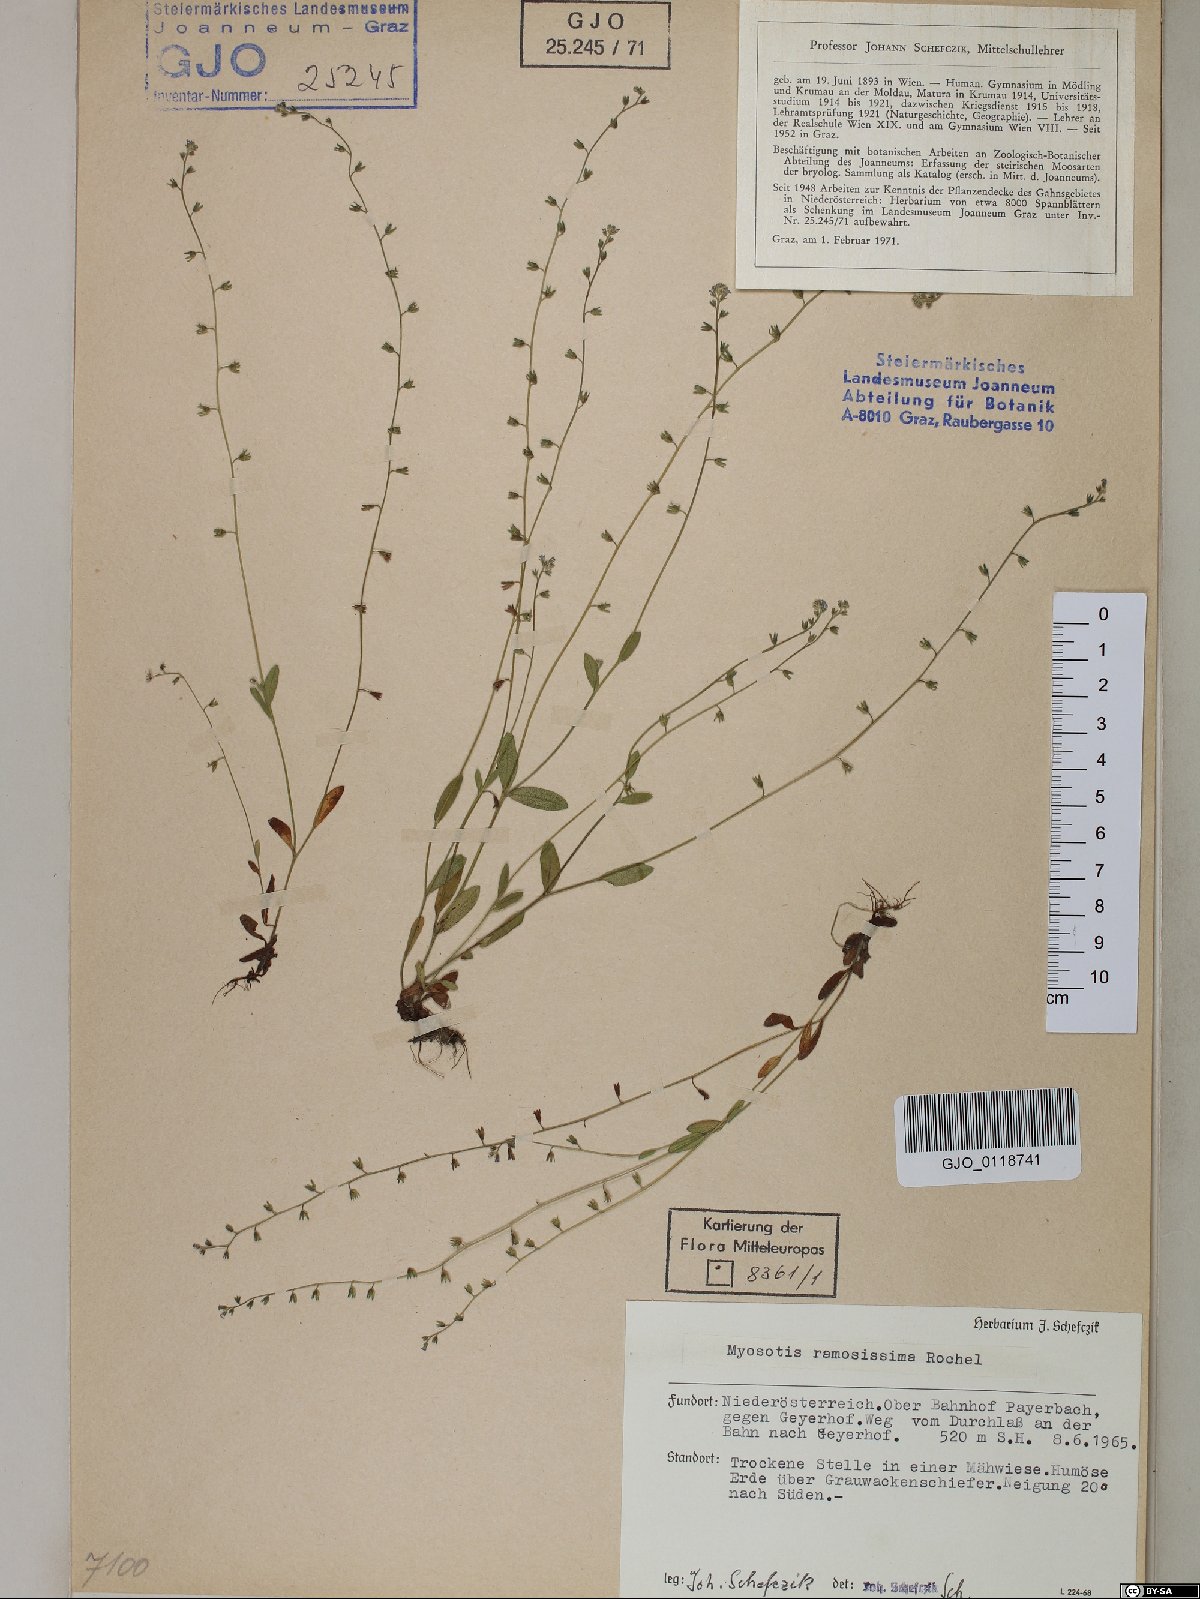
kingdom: Plantae
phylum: Tracheophyta
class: Magnoliopsida
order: Boraginales
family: Boraginaceae
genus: Myosotis
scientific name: Myosotis ramosissima
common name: Early forget-me-not
